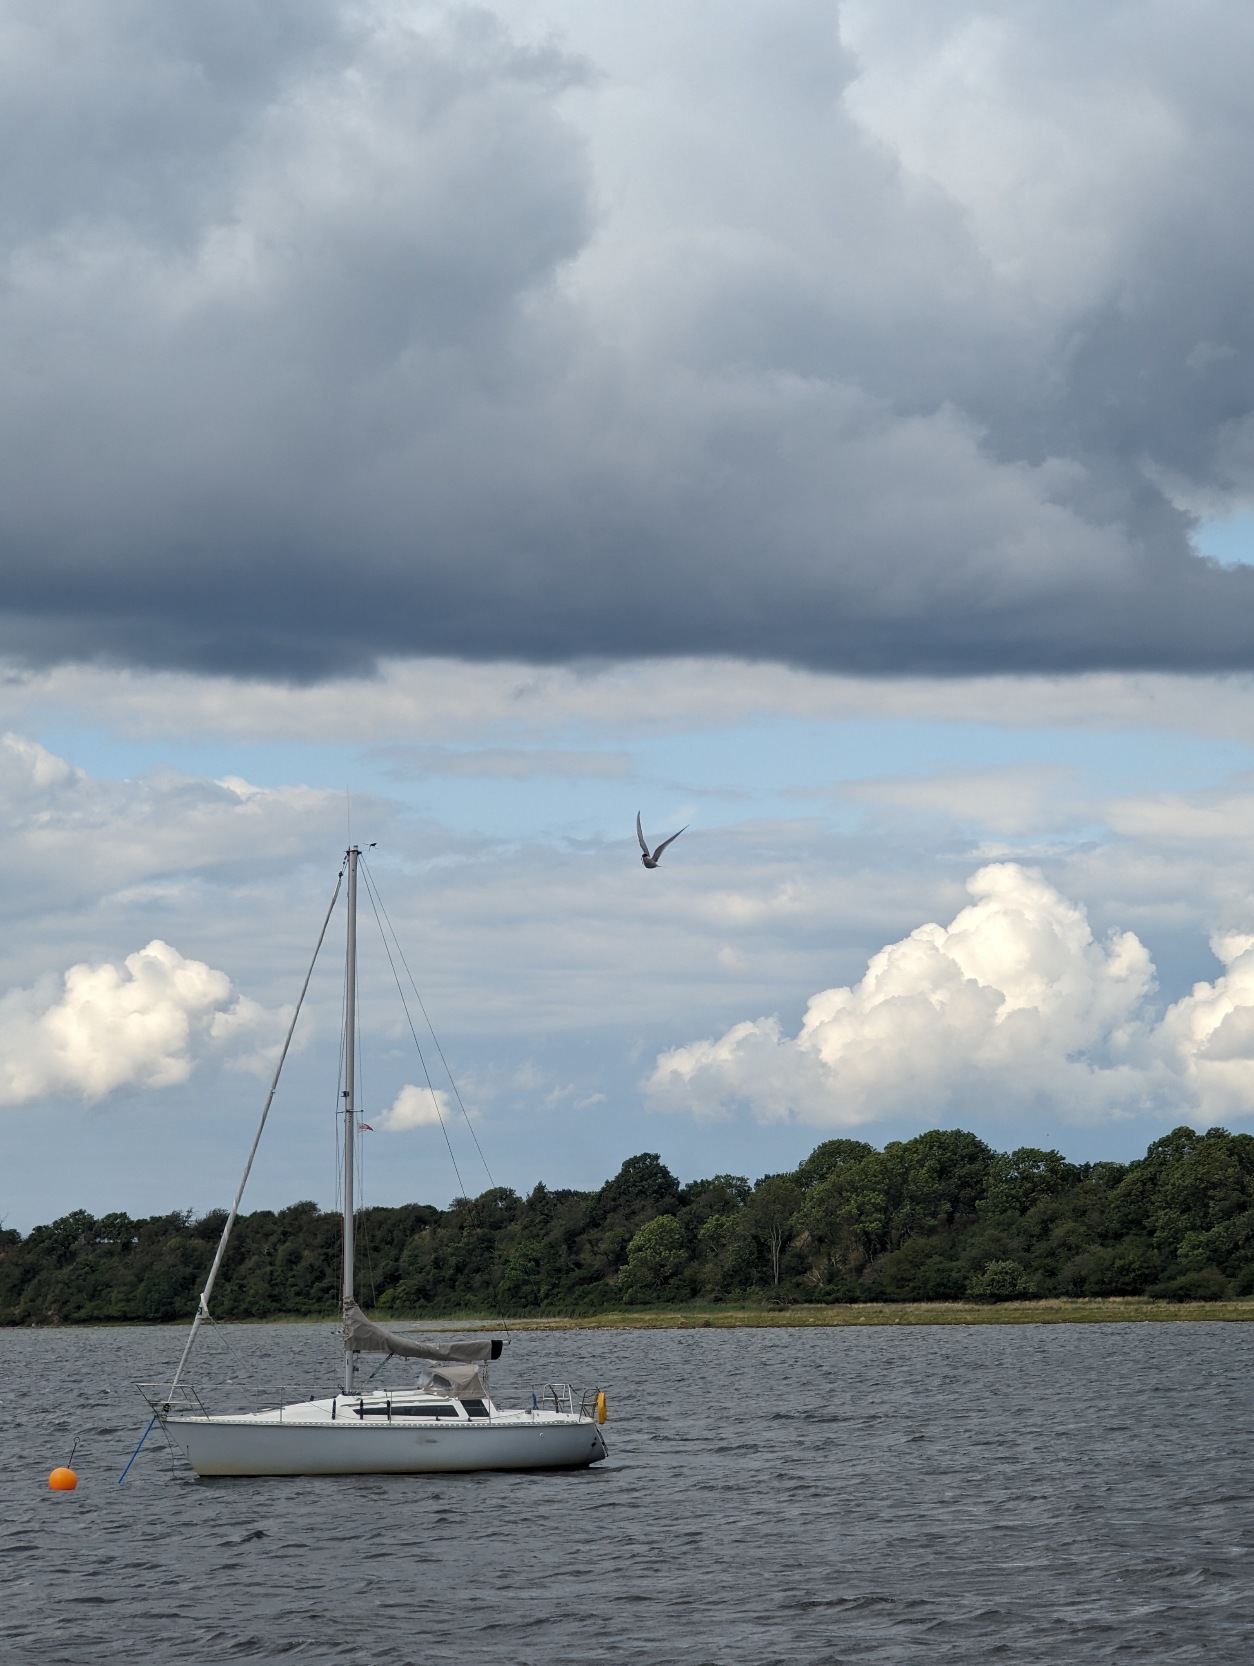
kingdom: Animalia
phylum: Chordata
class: Aves
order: Charadriiformes
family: Laridae
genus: Sterna
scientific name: Sterna hirundo
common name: Fjordterne
